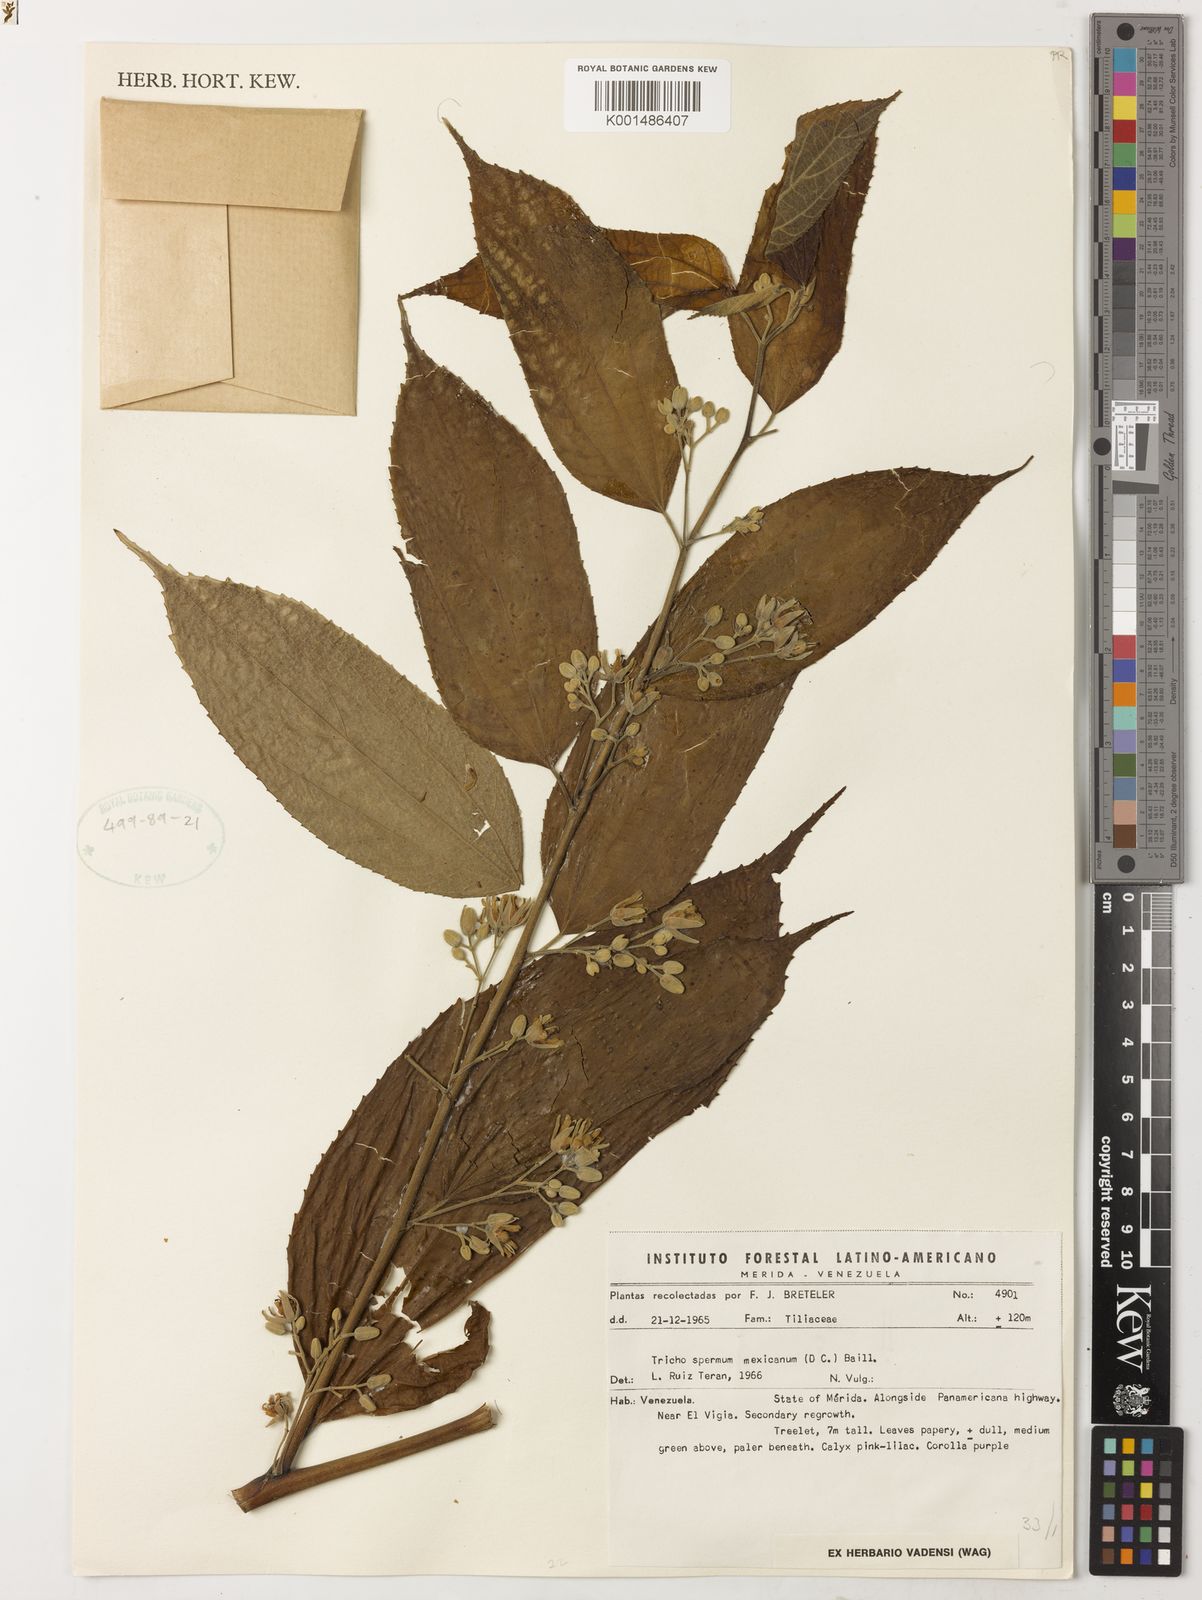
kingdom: Plantae
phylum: Tracheophyta
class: Magnoliopsida
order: Malvales
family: Malvaceae
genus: Trichospermum
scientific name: Trichospermum mexicanum
